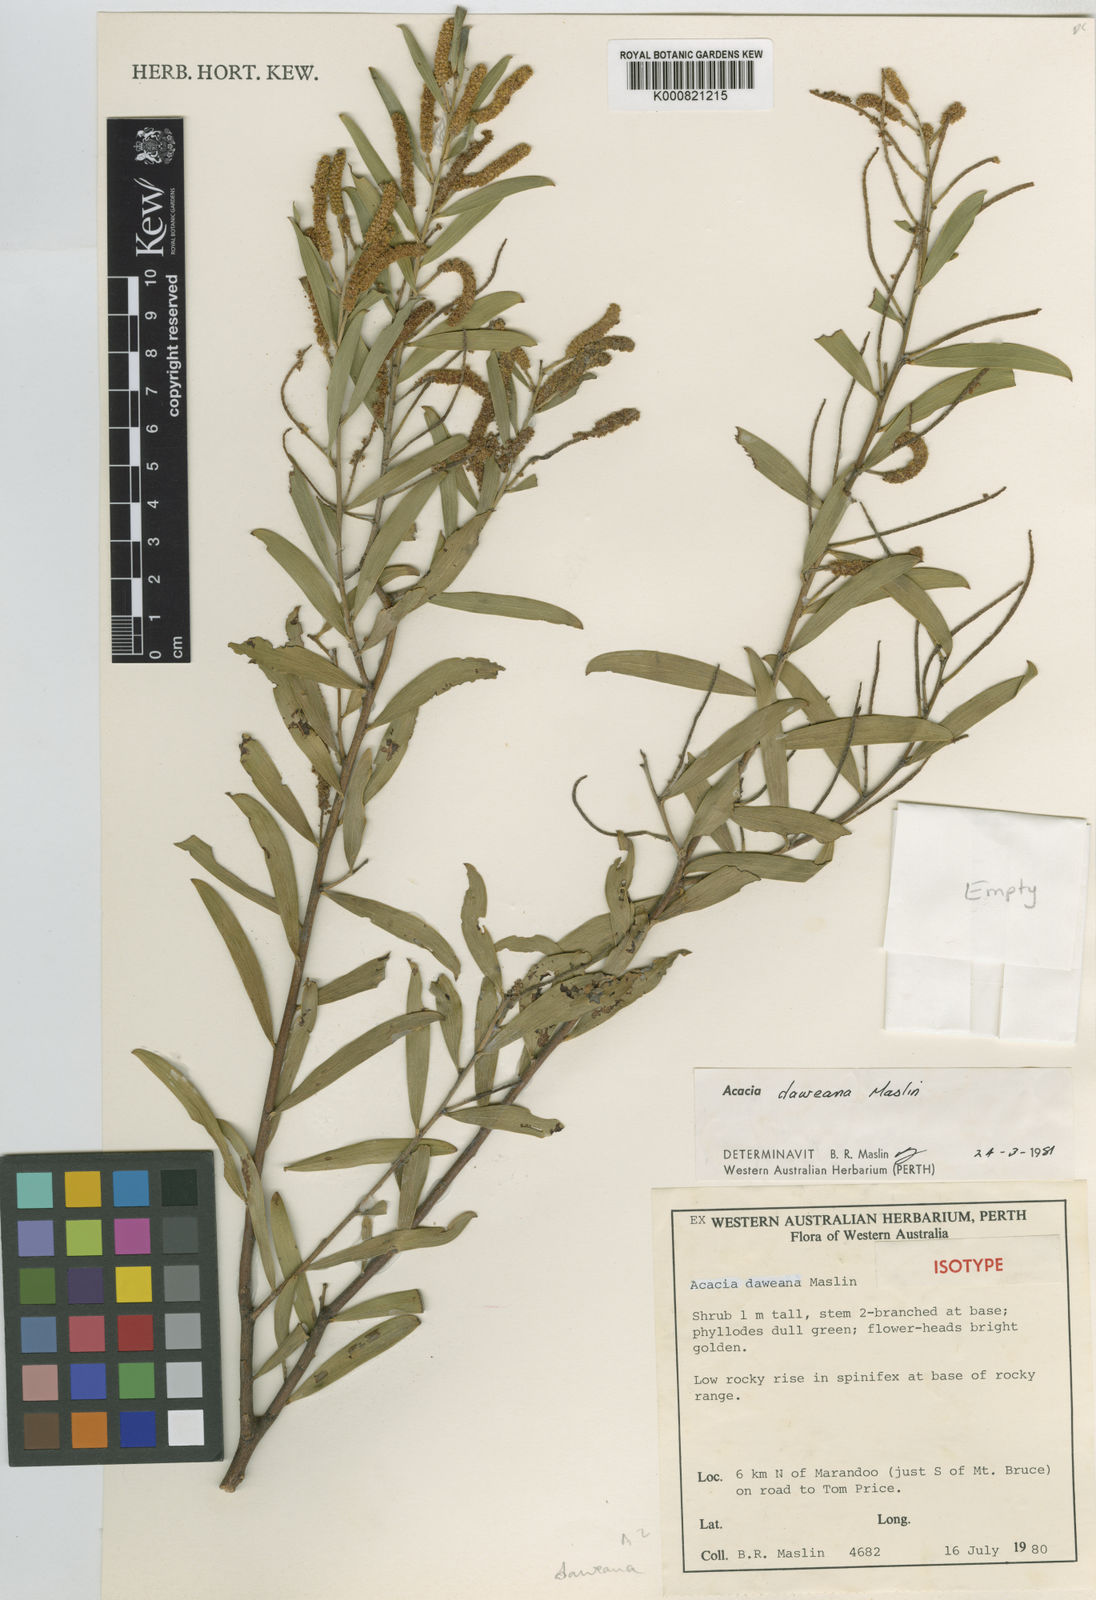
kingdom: Plantae
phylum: Tracheophyta
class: Magnoliopsida
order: Fabales
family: Fabaceae
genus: Acacia
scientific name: Acacia daweana
